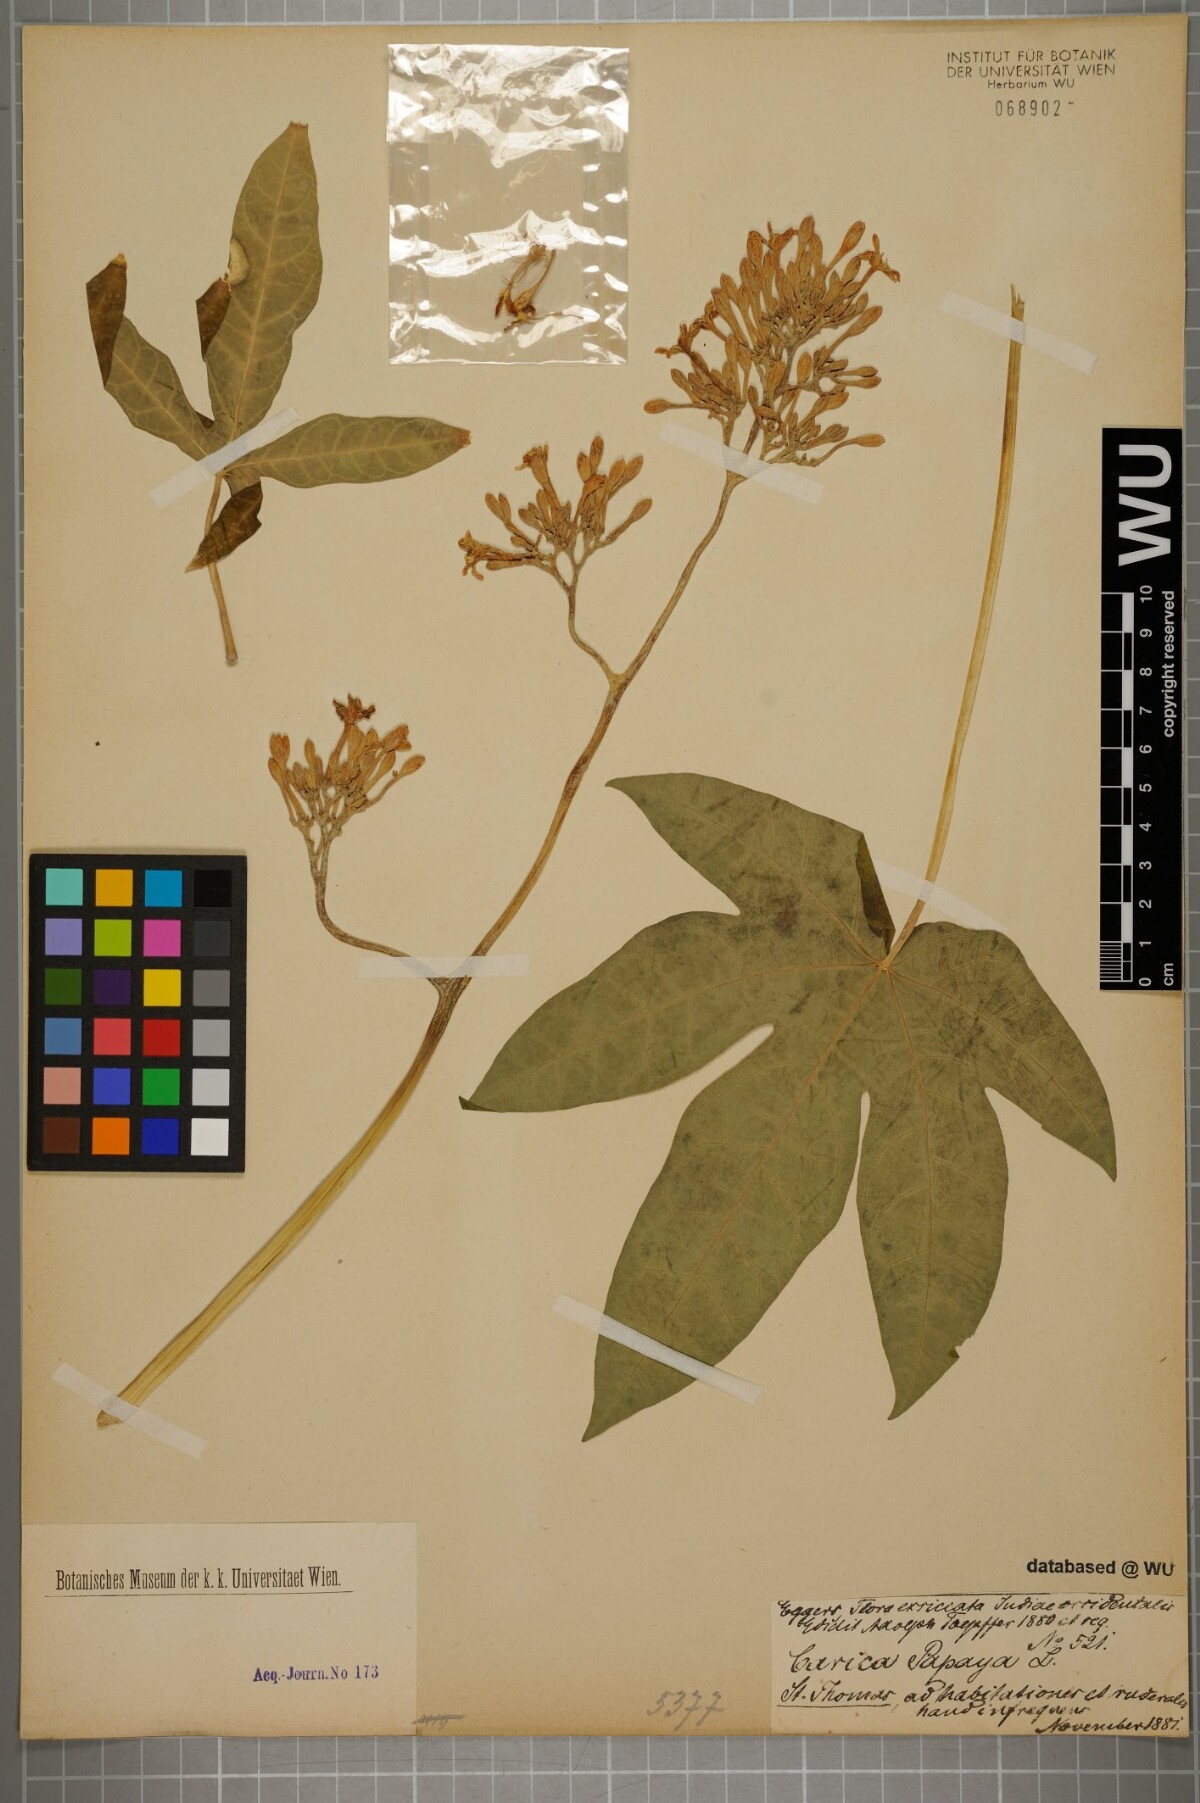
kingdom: Plantae
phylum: Tracheophyta
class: Magnoliopsida
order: Brassicales
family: Caricaceae
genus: Carica
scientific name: Carica papaya
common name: Papaya
